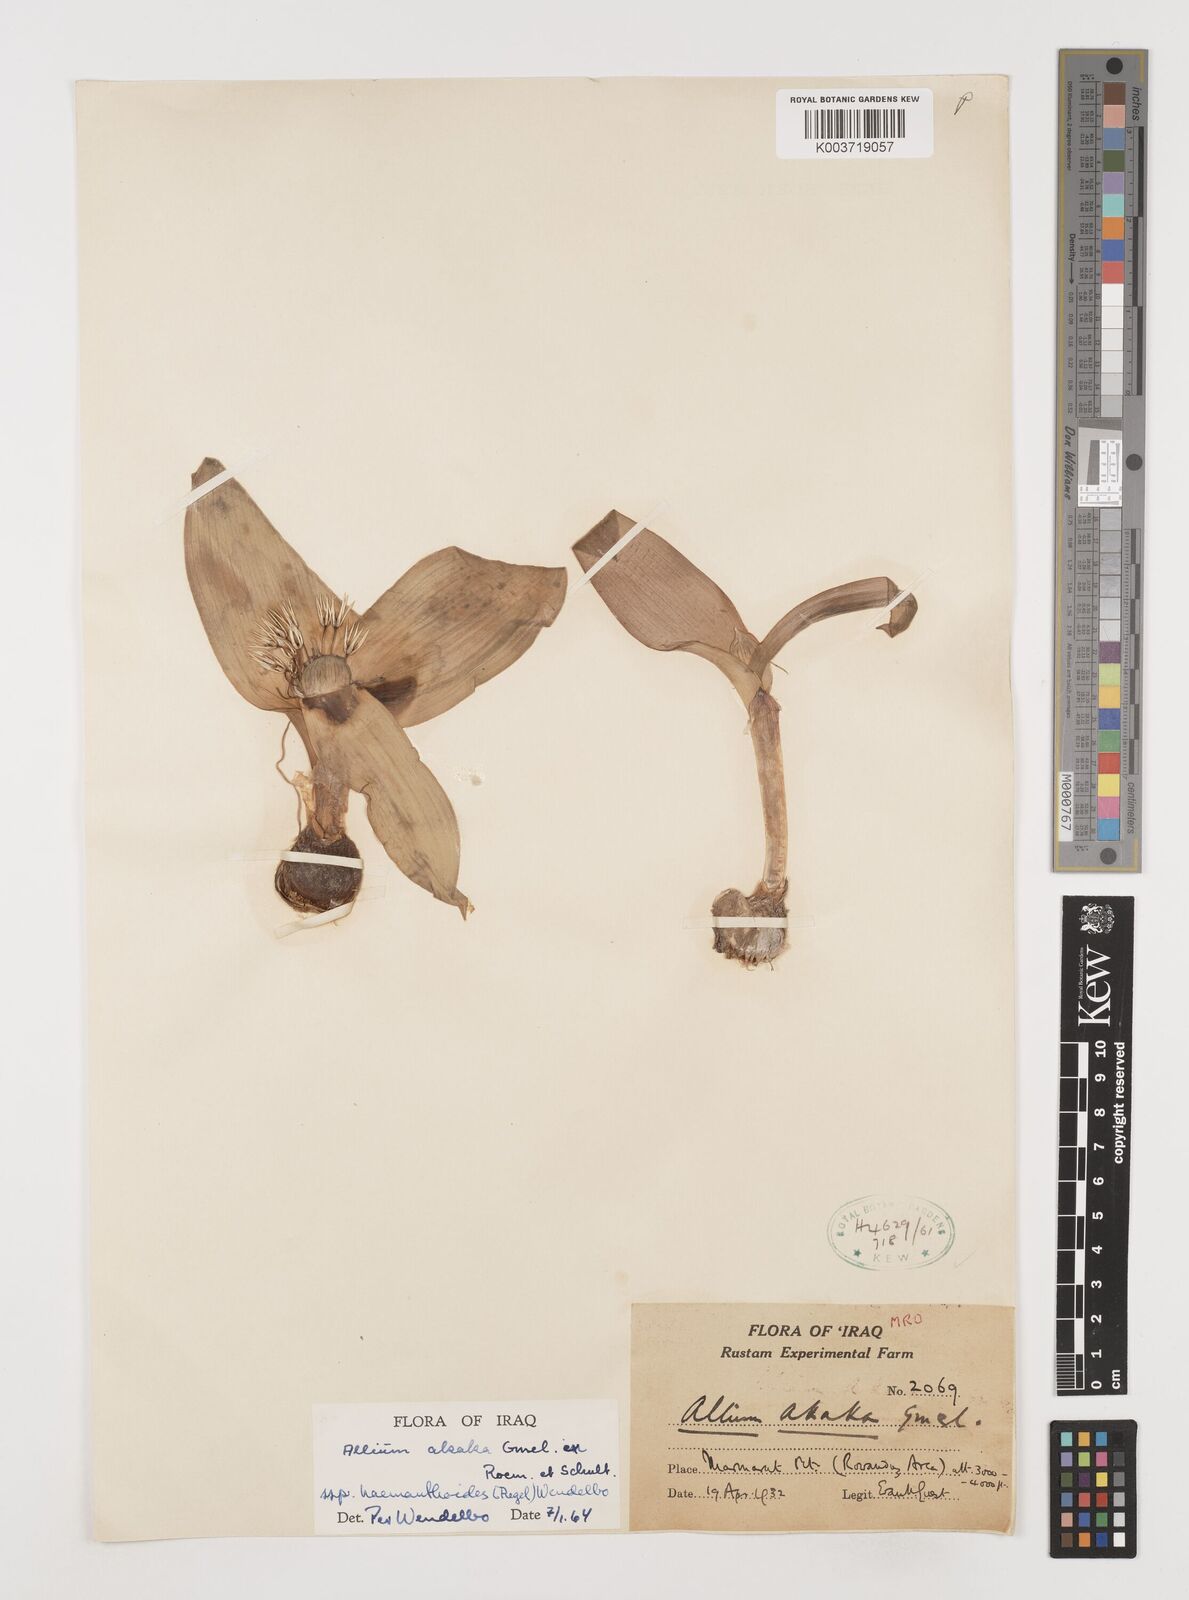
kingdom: Plantae
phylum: Tracheophyta
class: Liliopsida
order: Asparagales
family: Amaryllidaceae
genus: Allium
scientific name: Allium haemanthoides
